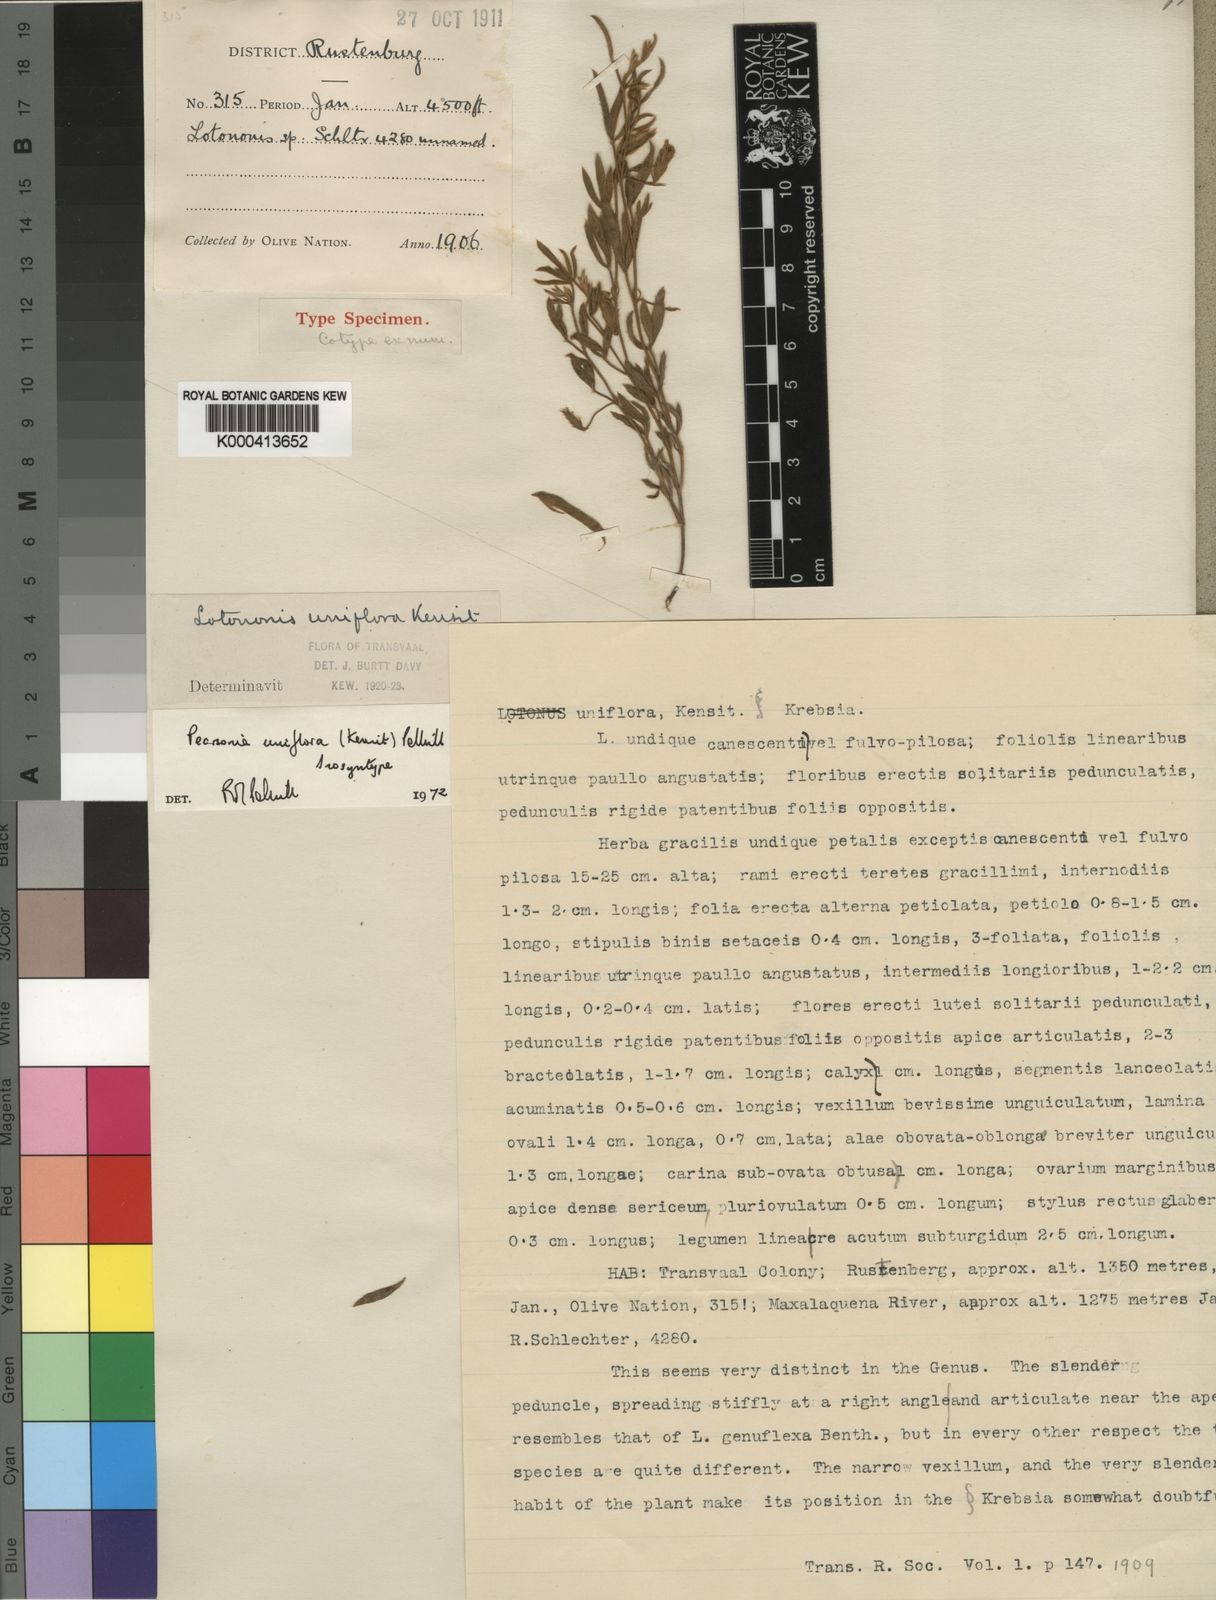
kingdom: Plantae
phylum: Tracheophyta
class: Magnoliopsida
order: Fabales
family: Fabaceae
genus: Pearsonia
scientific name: Pearsonia uniflora
